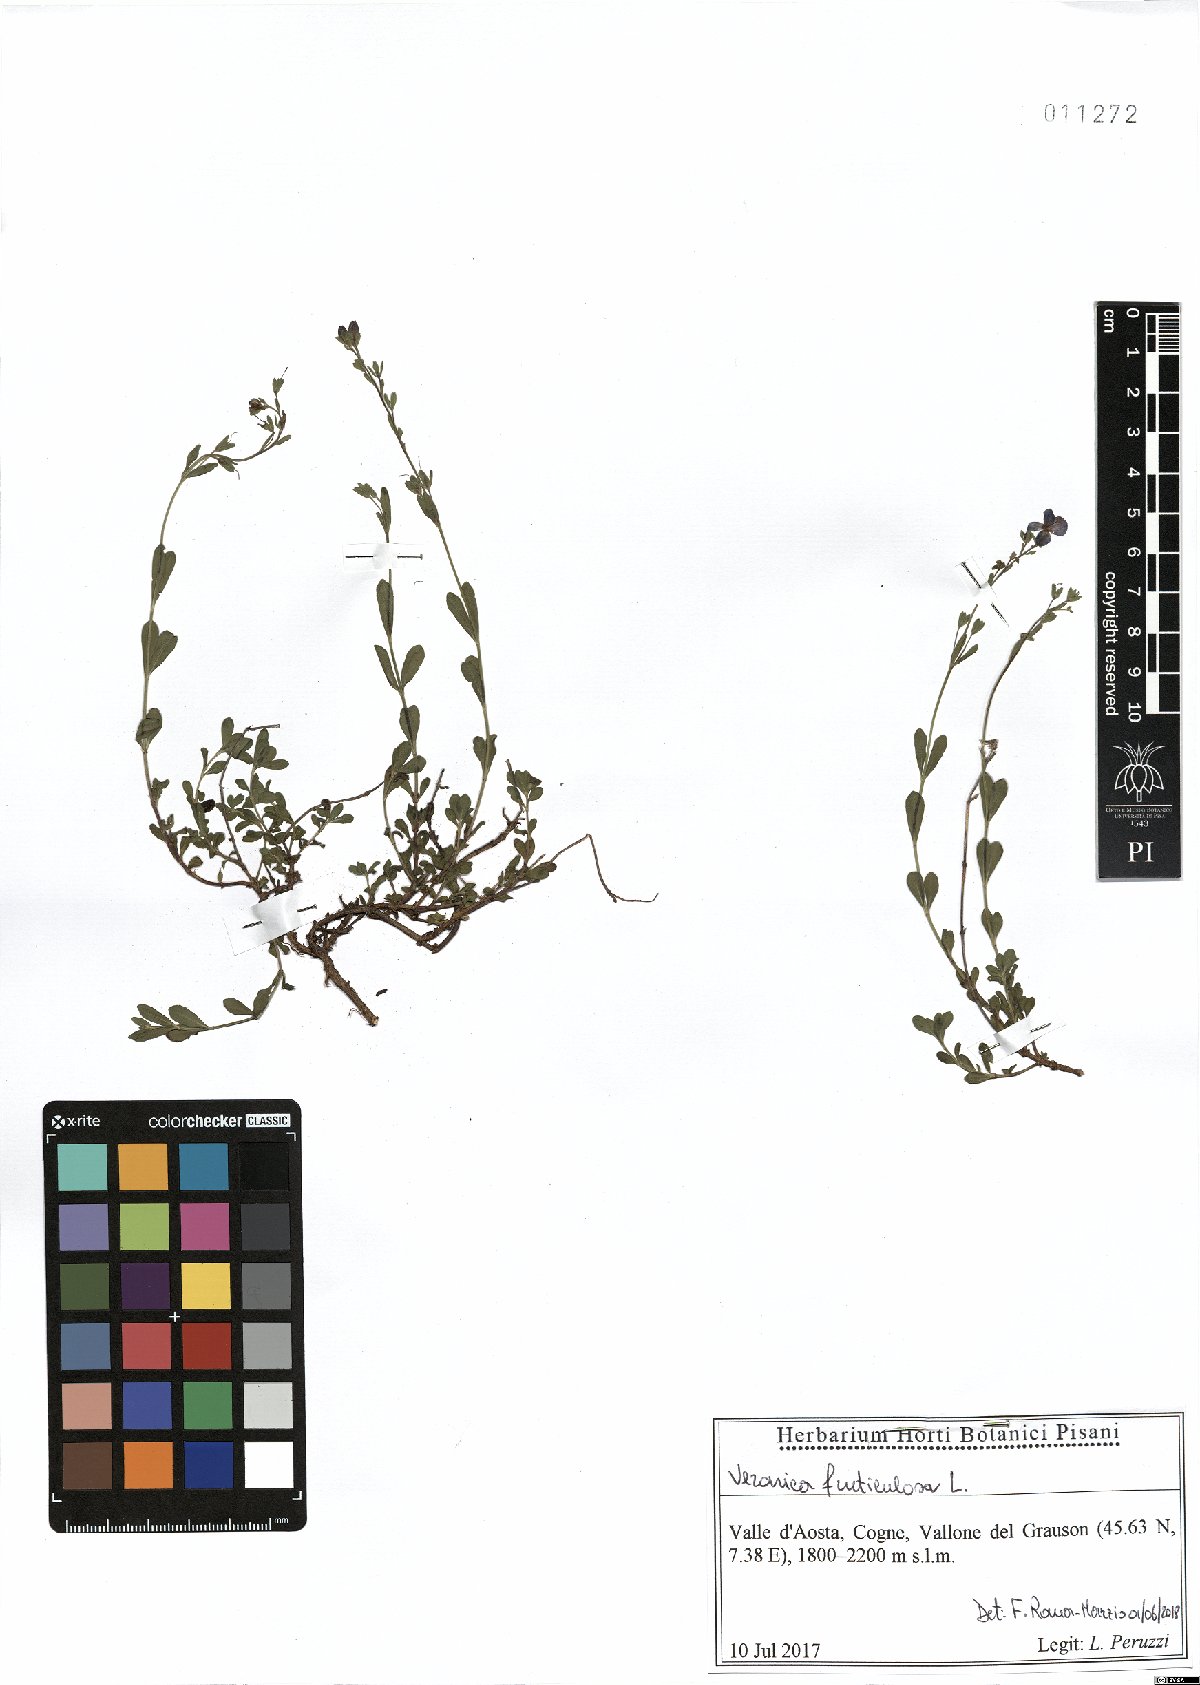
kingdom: Plantae
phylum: Tracheophyta
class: Magnoliopsida
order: Lamiales
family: Plantaginaceae
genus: Veronica
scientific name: Veronica fruticulosa
